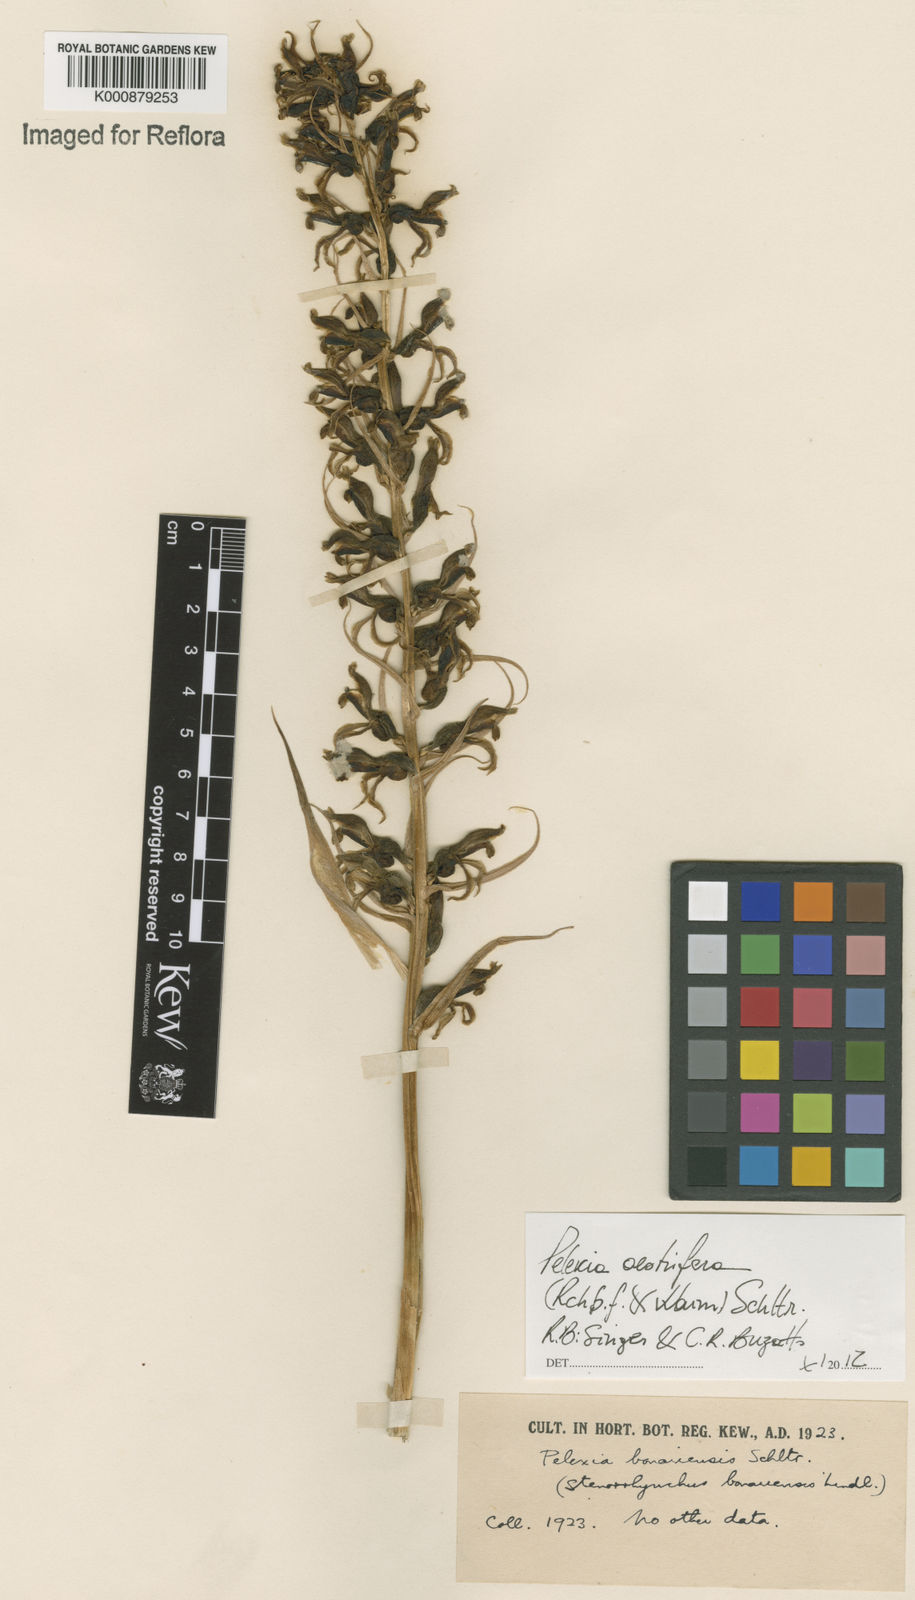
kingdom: Plantae
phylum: Tracheophyta
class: Liliopsida
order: Asparagales
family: Orchidaceae
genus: Pelexia
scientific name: Pelexia oestrifera
